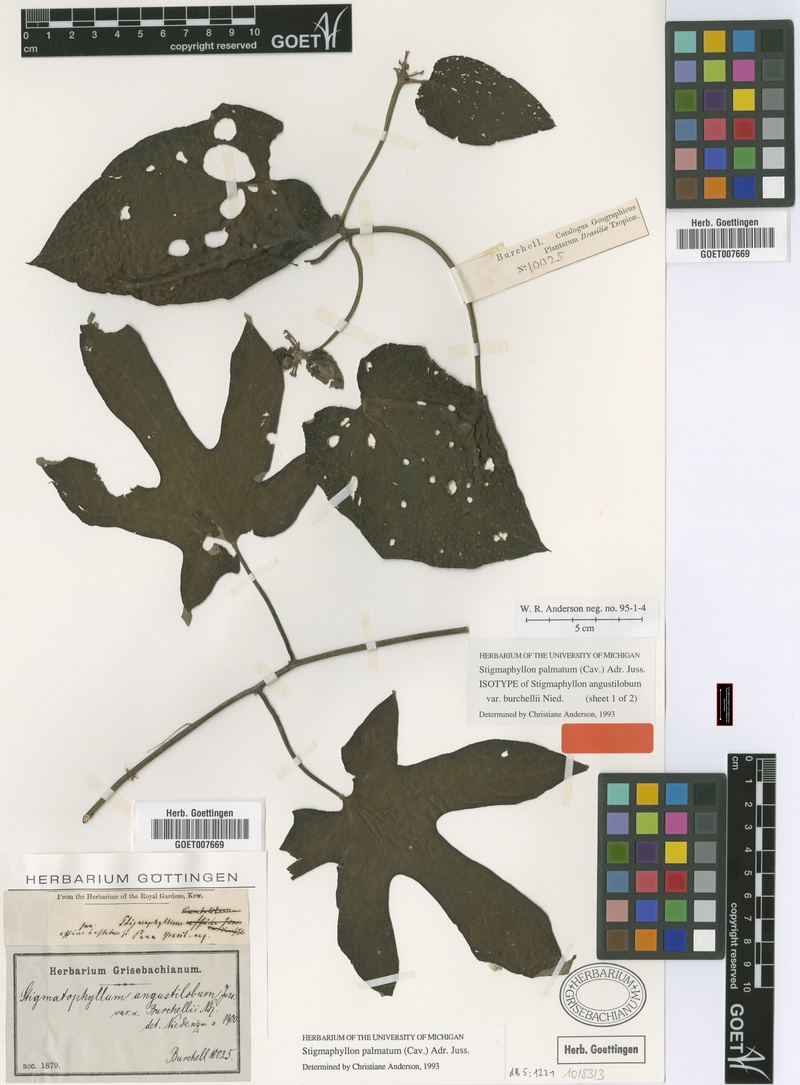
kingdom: Plantae
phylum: Tracheophyta
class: Magnoliopsida
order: Malpighiales
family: Malpighiaceae
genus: Stigmaphyllon
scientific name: Stigmaphyllon palmatum
